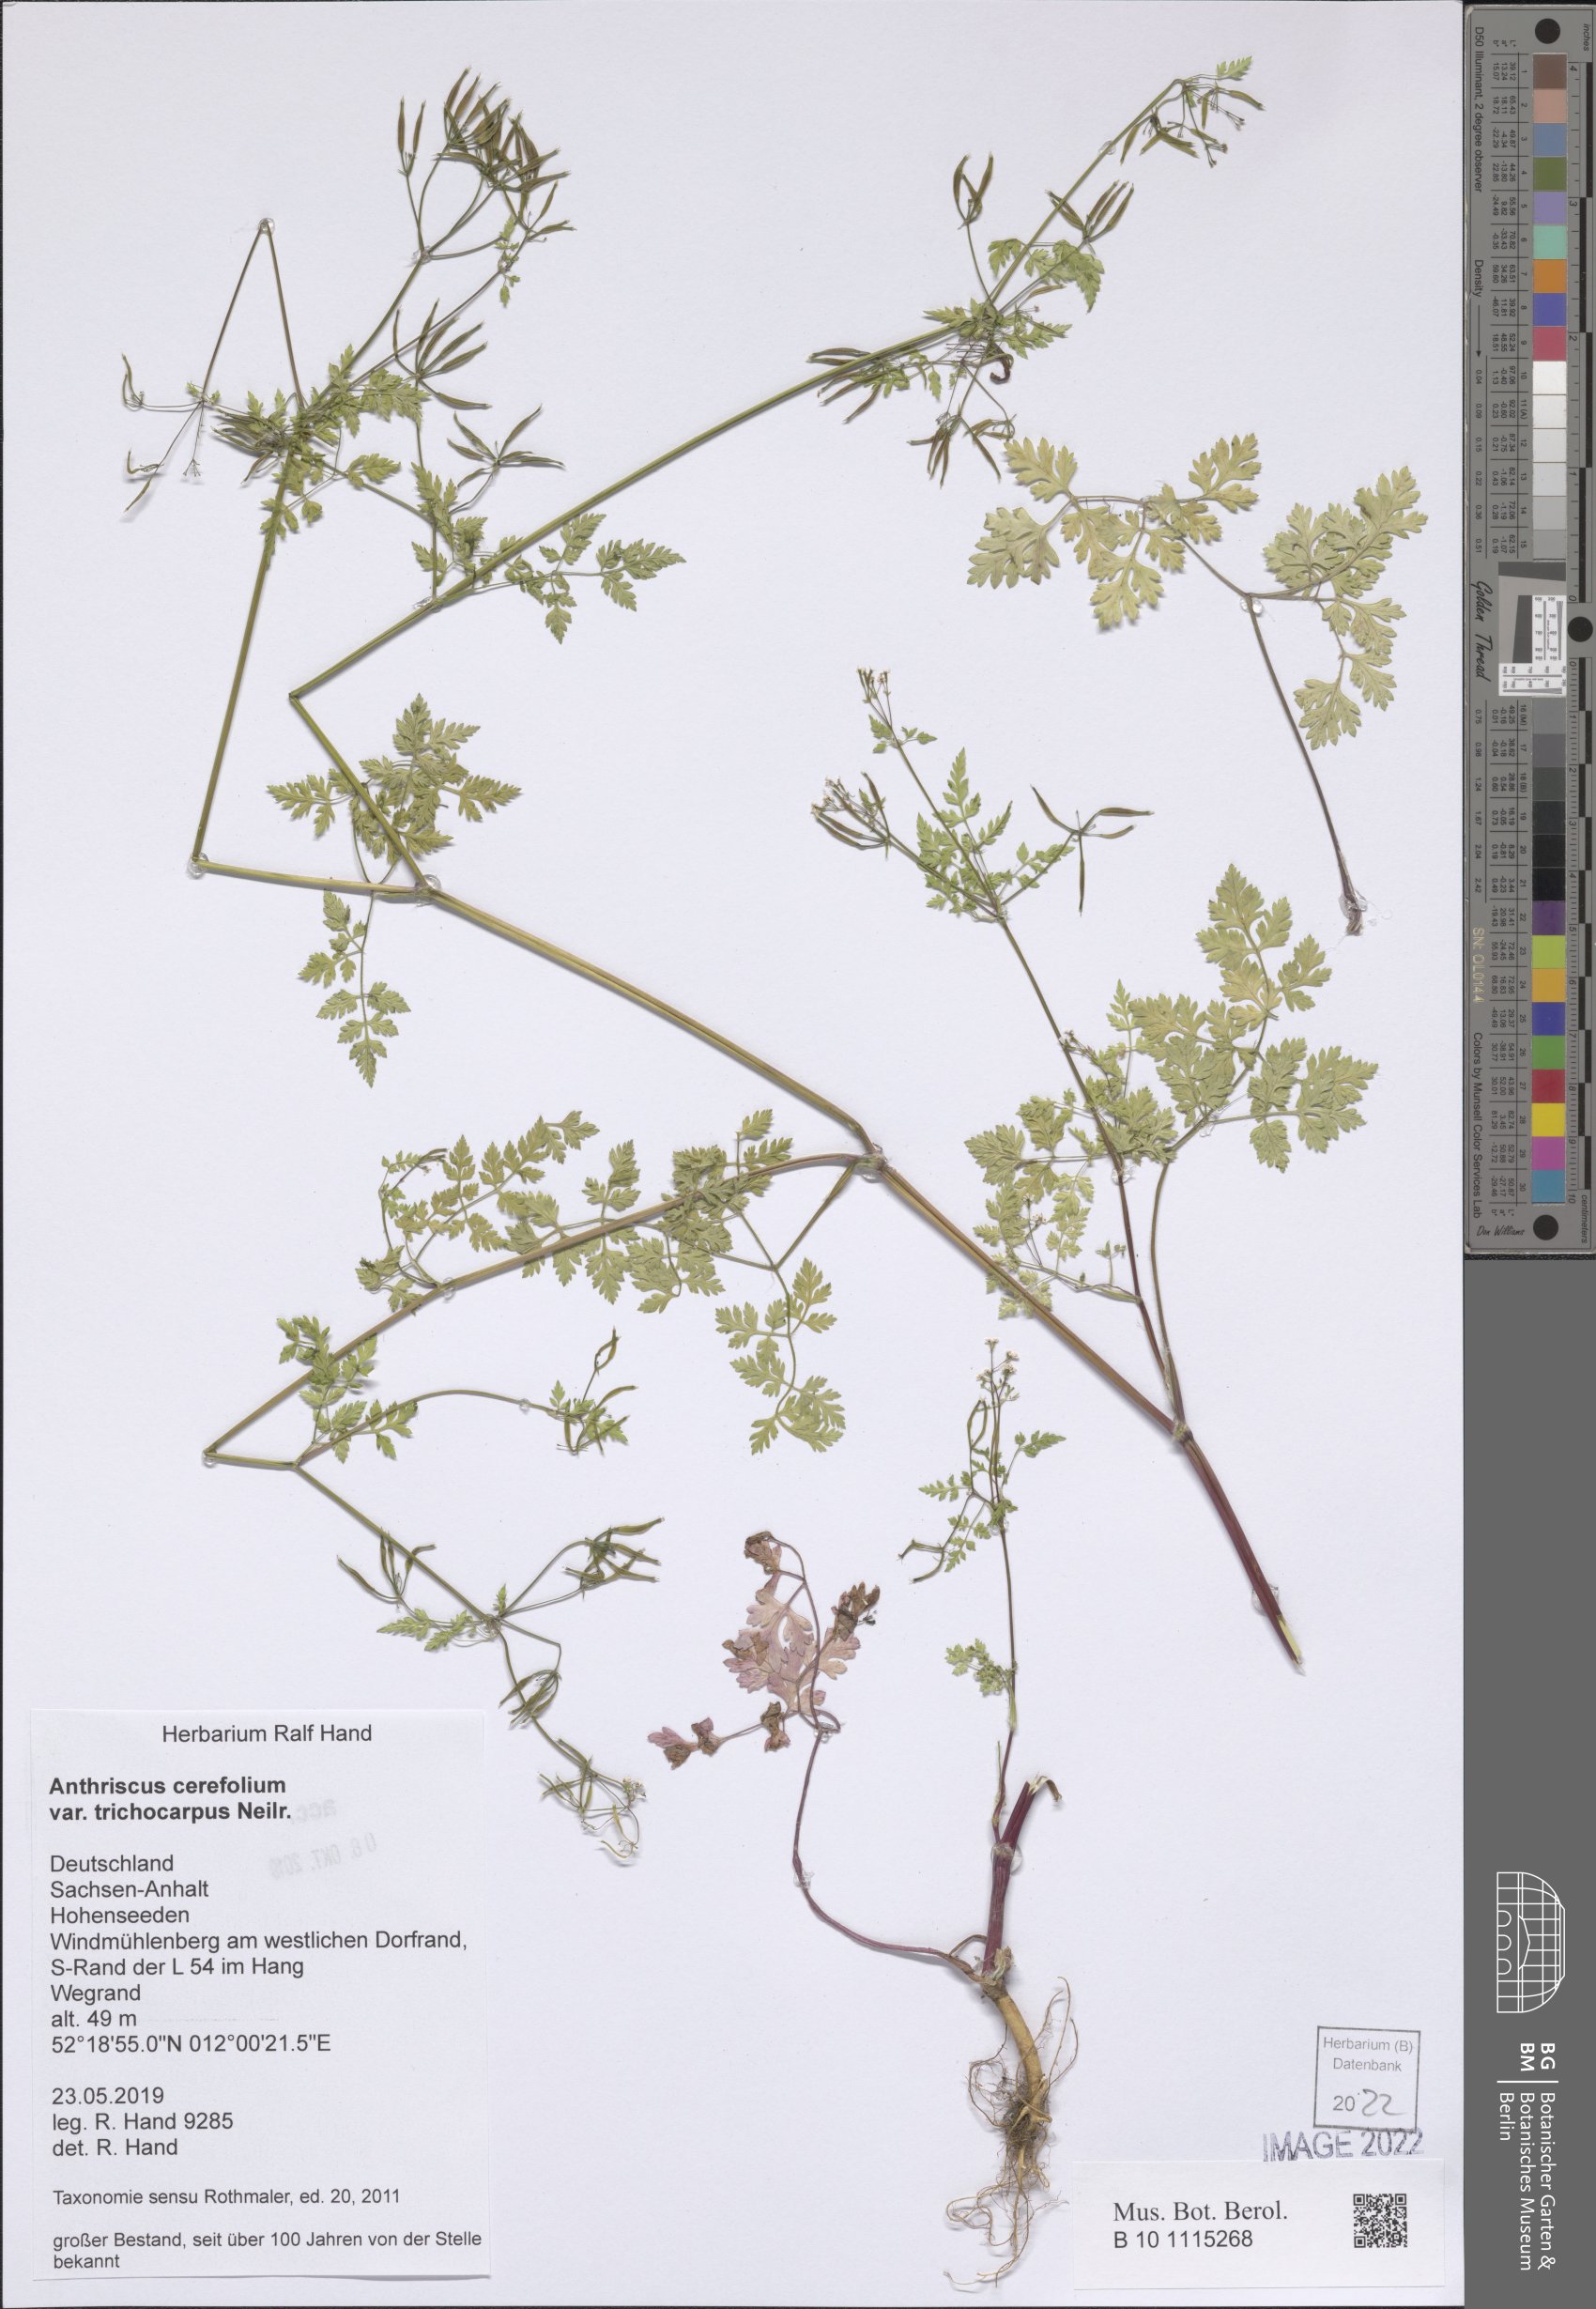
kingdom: Plantae
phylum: Tracheophyta
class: Magnoliopsida
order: Apiales
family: Apiaceae
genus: Anthriscus
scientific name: Anthriscus cerefolium
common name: Garden chervil
